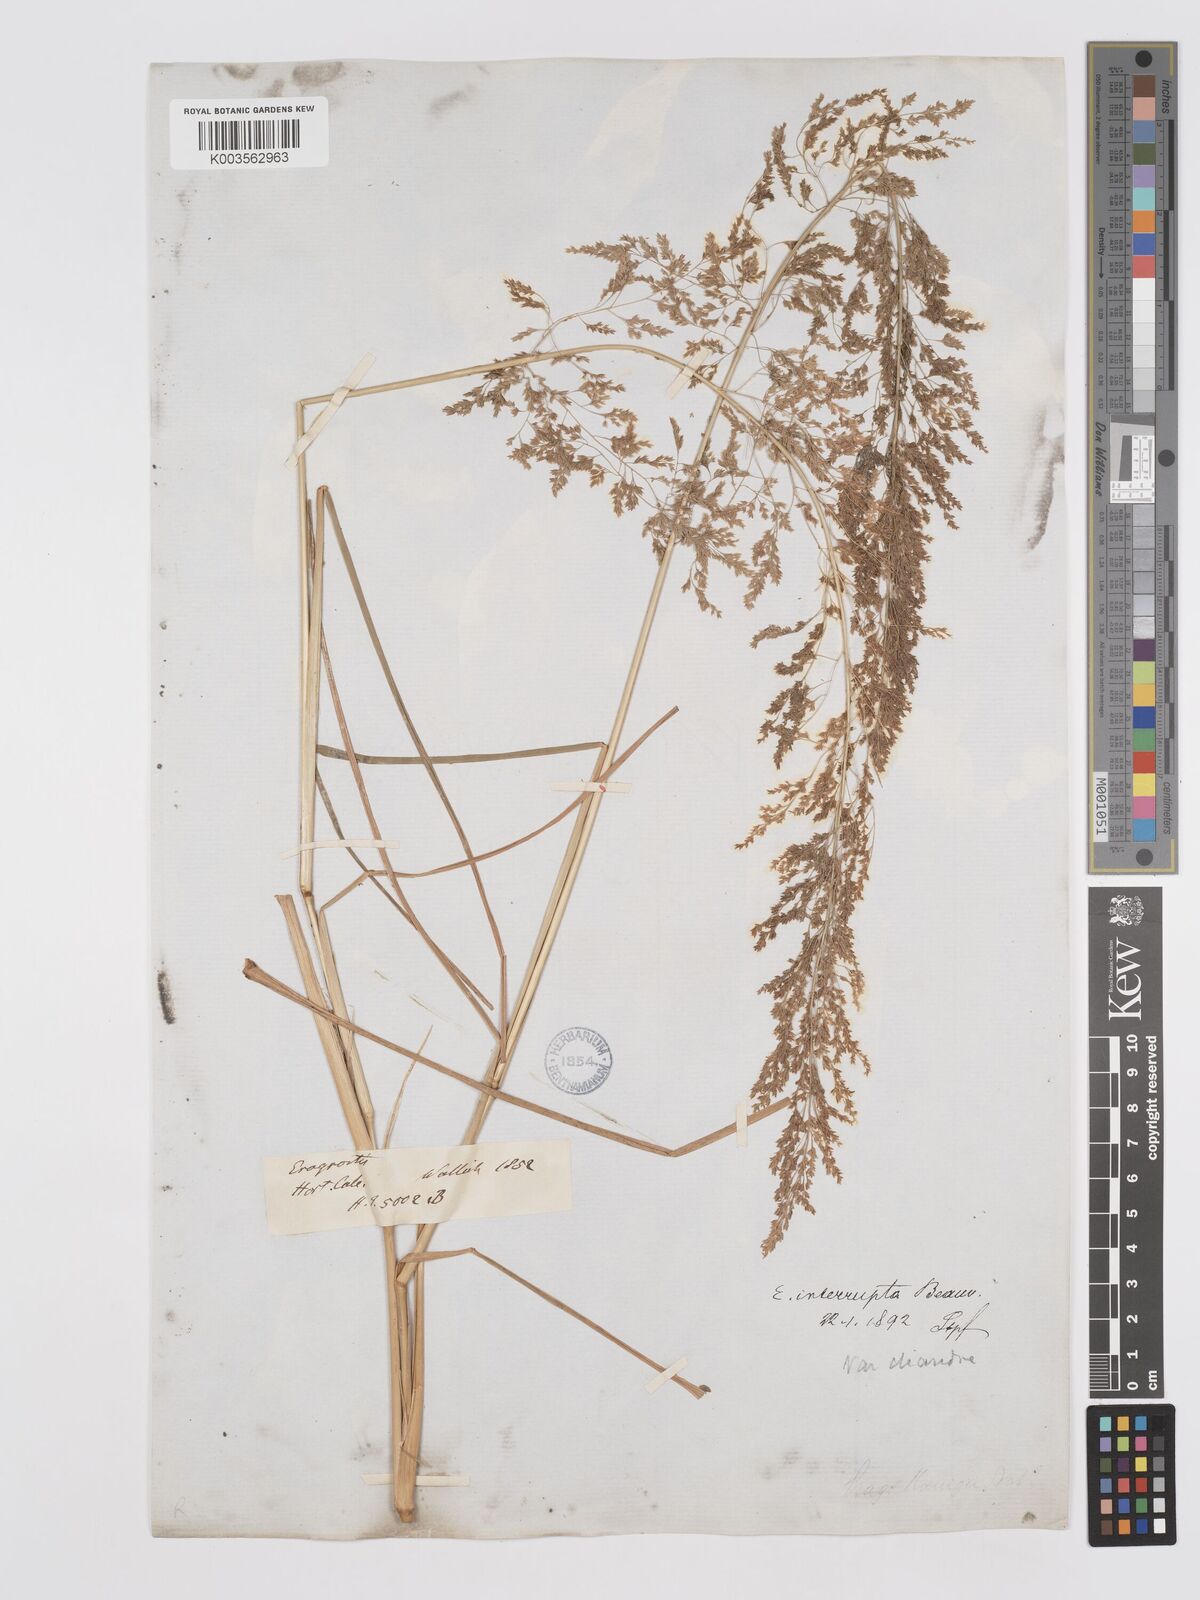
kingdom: Plantae
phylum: Tracheophyta
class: Liliopsida
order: Poales
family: Poaceae
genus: Eragrostis
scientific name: Eragrostis japonica
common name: Pond lovegrass
